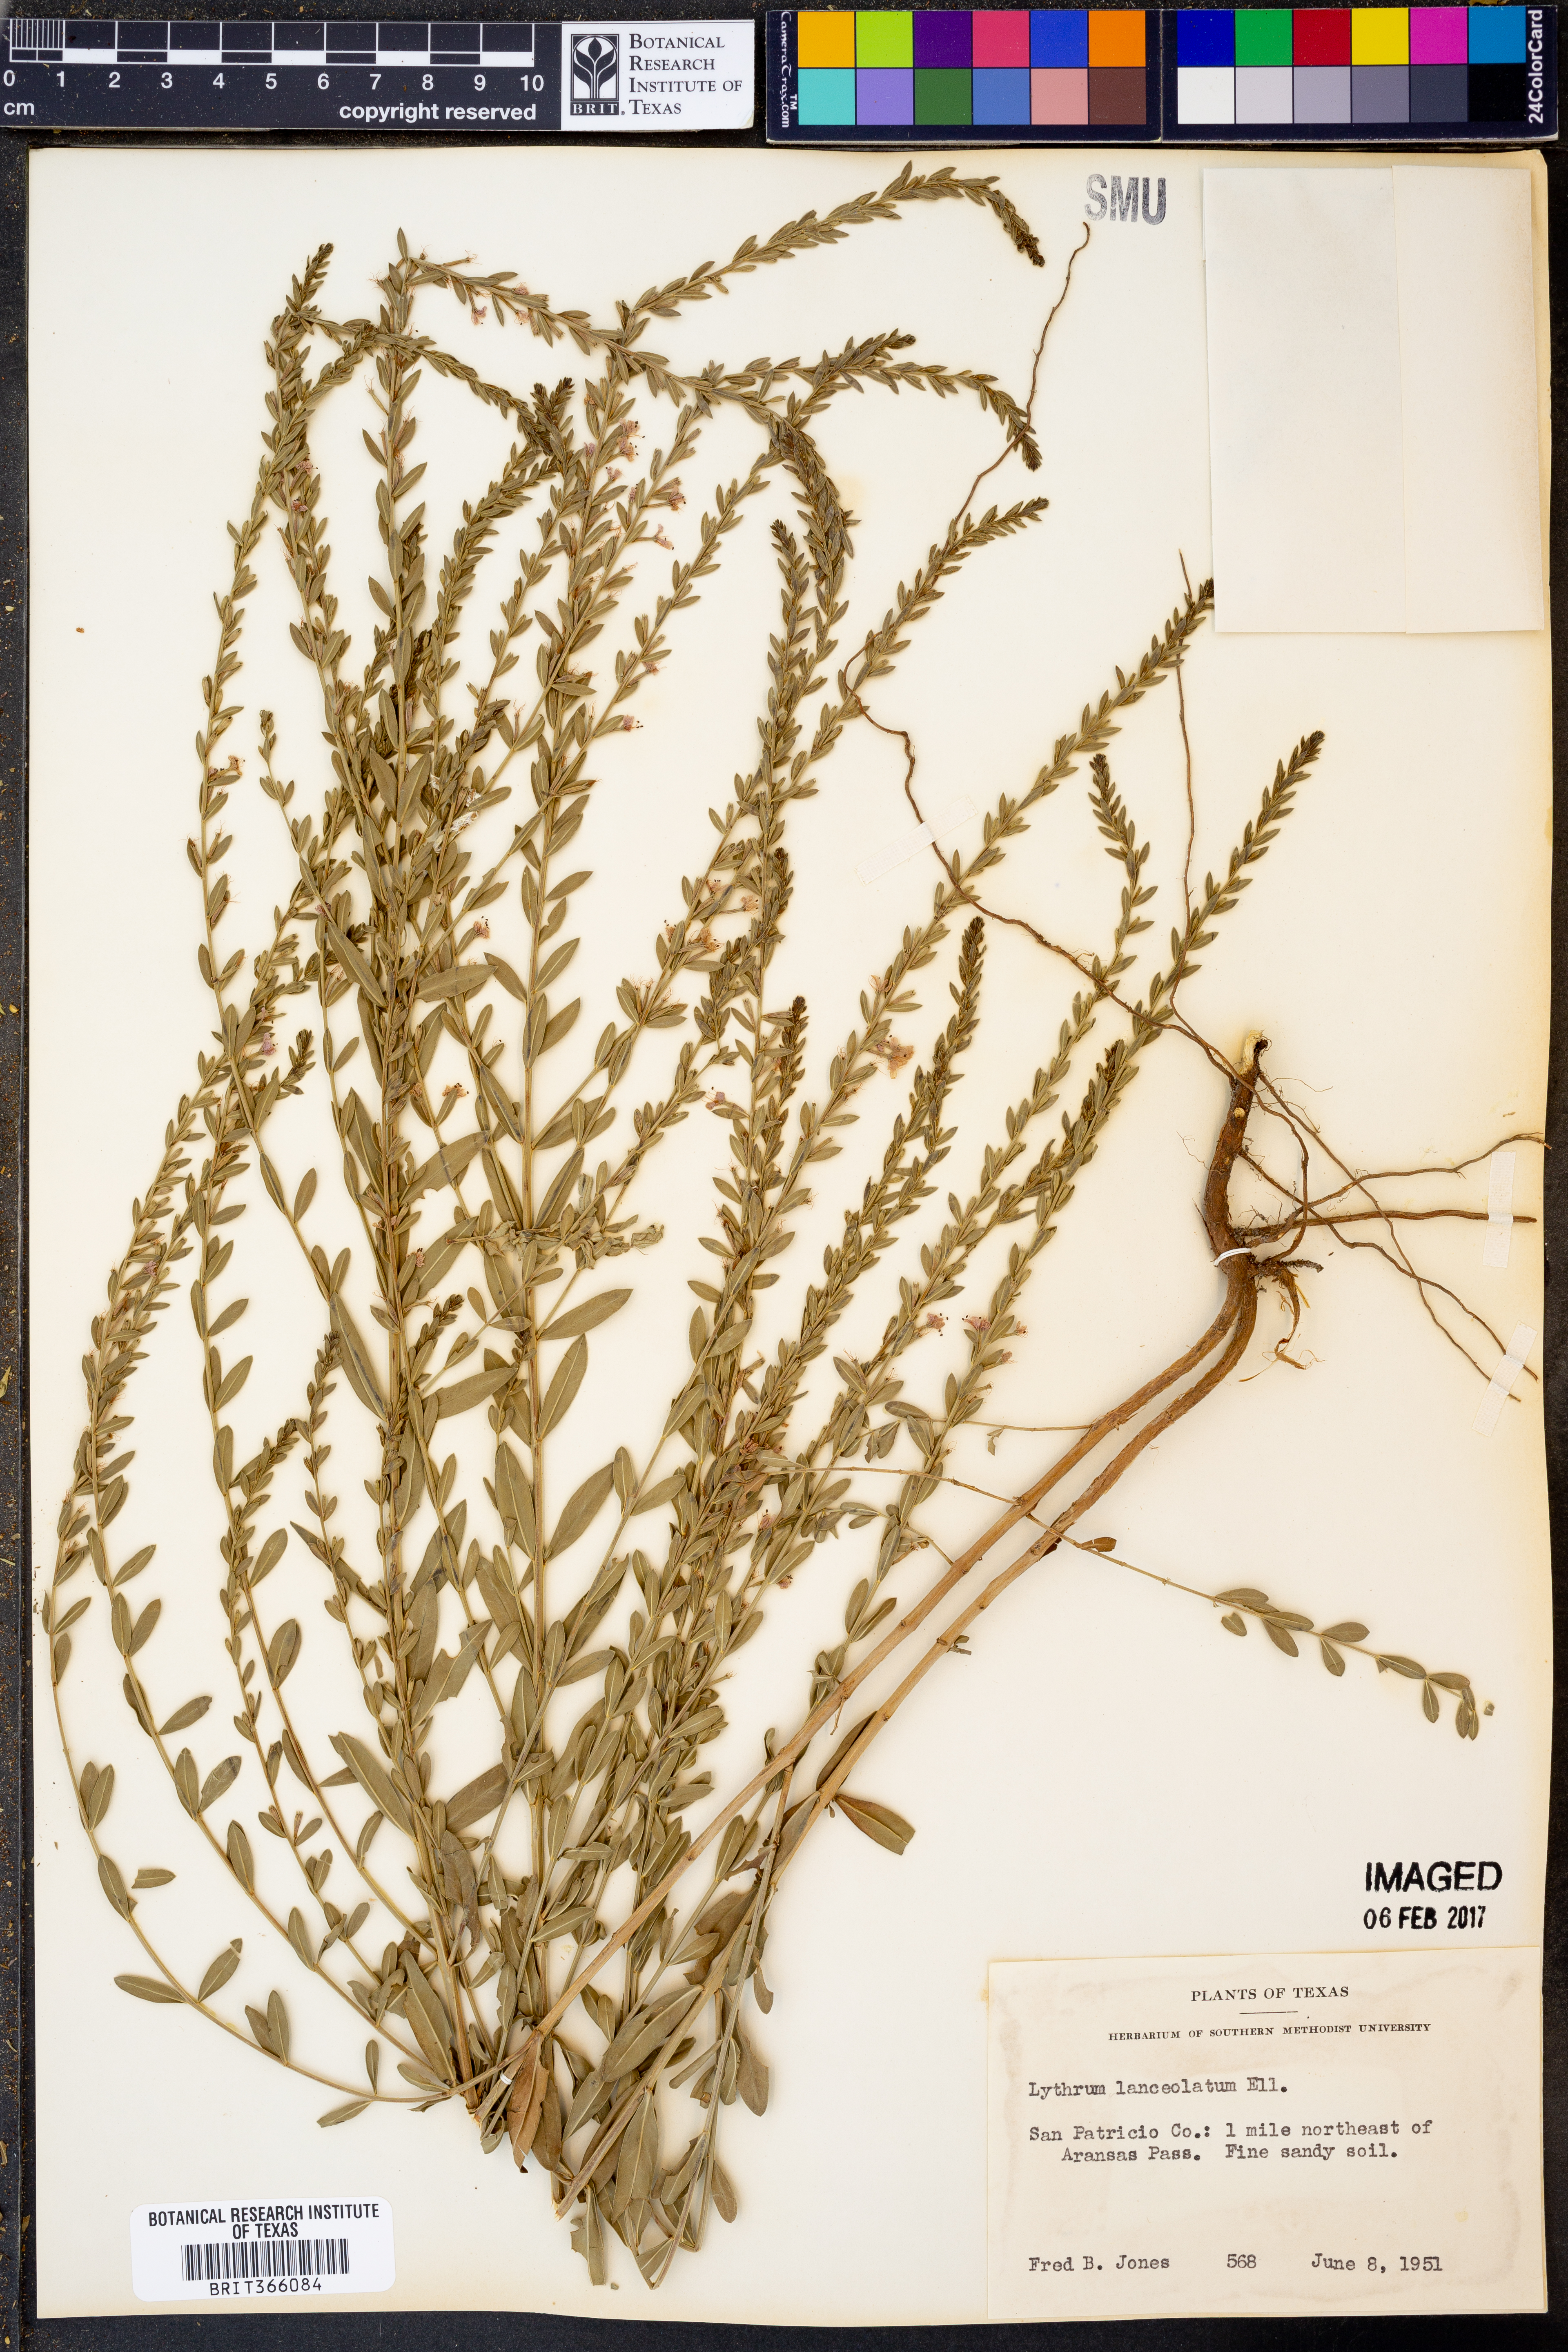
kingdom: Plantae
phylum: Tracheophyta
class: Magnoliopsida
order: Myrtales
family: Lythraceae
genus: Lythrum
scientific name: Lythrum alatum
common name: Winged loosestrife
